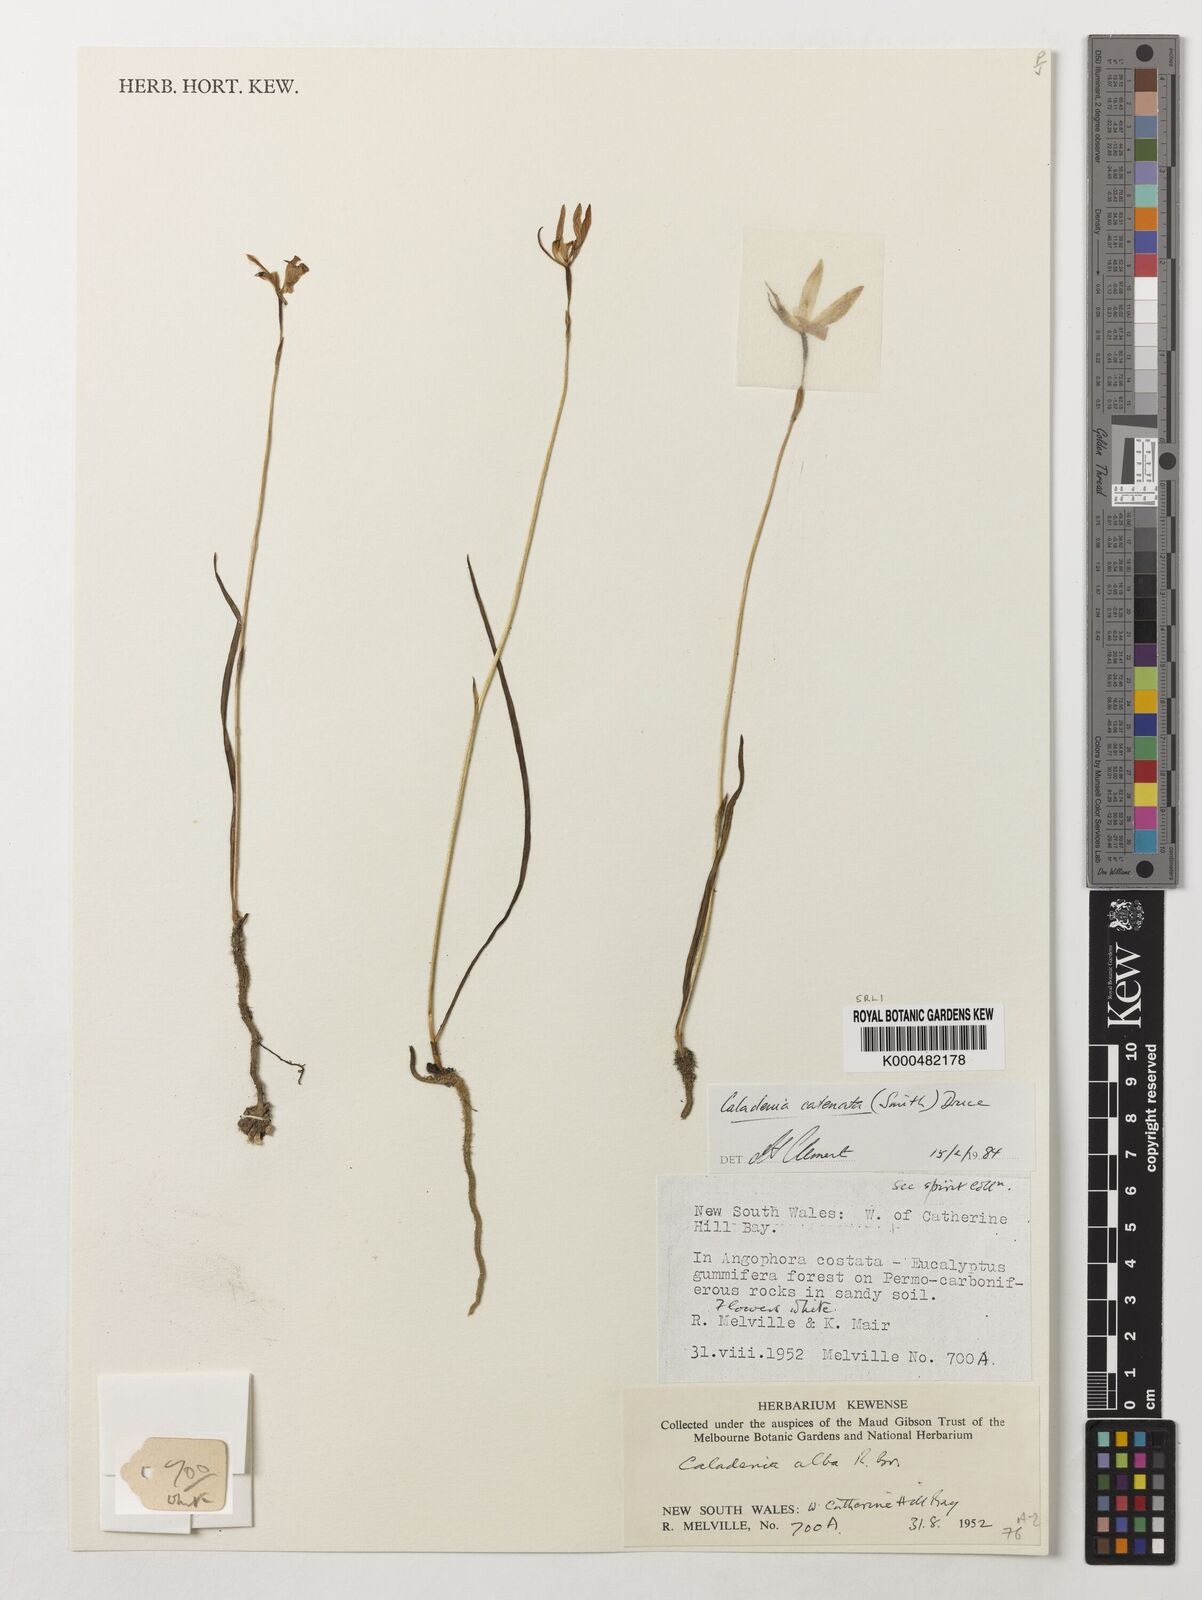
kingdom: Plantae
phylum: Tracheophyta
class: Liliopsida
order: Asparagales
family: Orchidaceae
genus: Caladenia
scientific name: Caladenia
